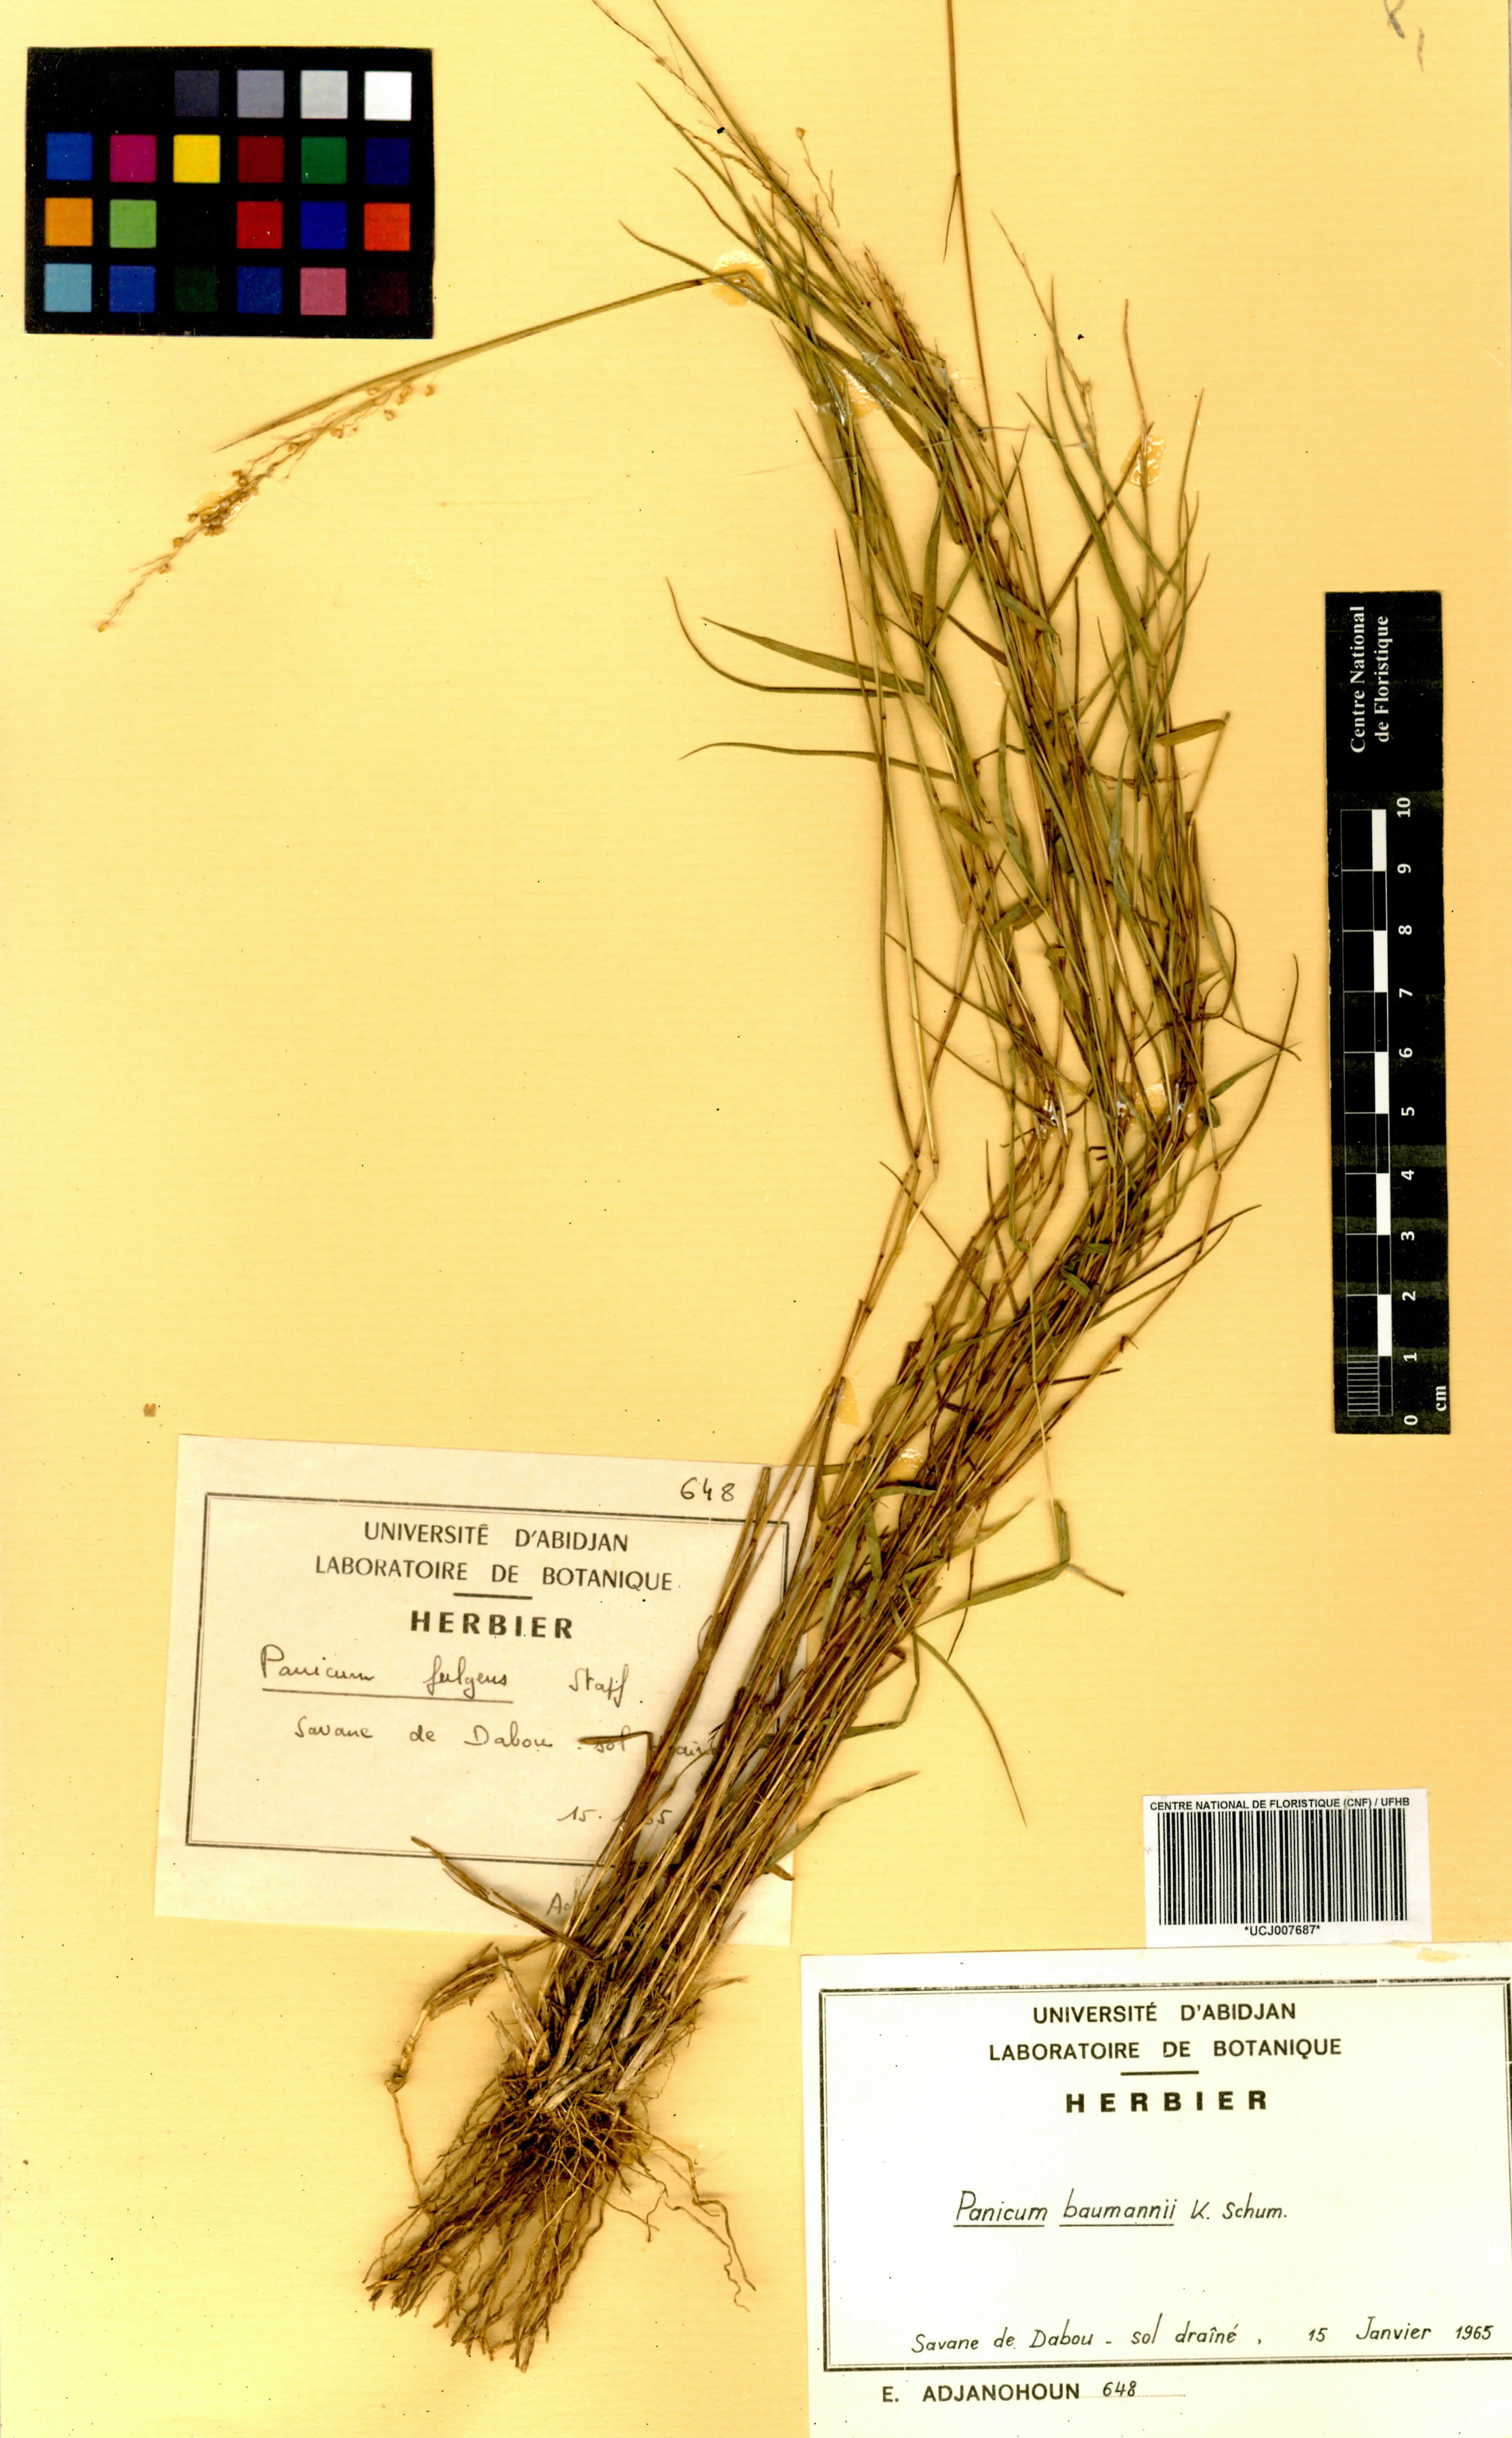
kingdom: Plantae
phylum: Tracheophyta
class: Liliopsida
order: Poales
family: Poaceae
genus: Trichanthecium
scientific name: Trichanthecium nervatum
